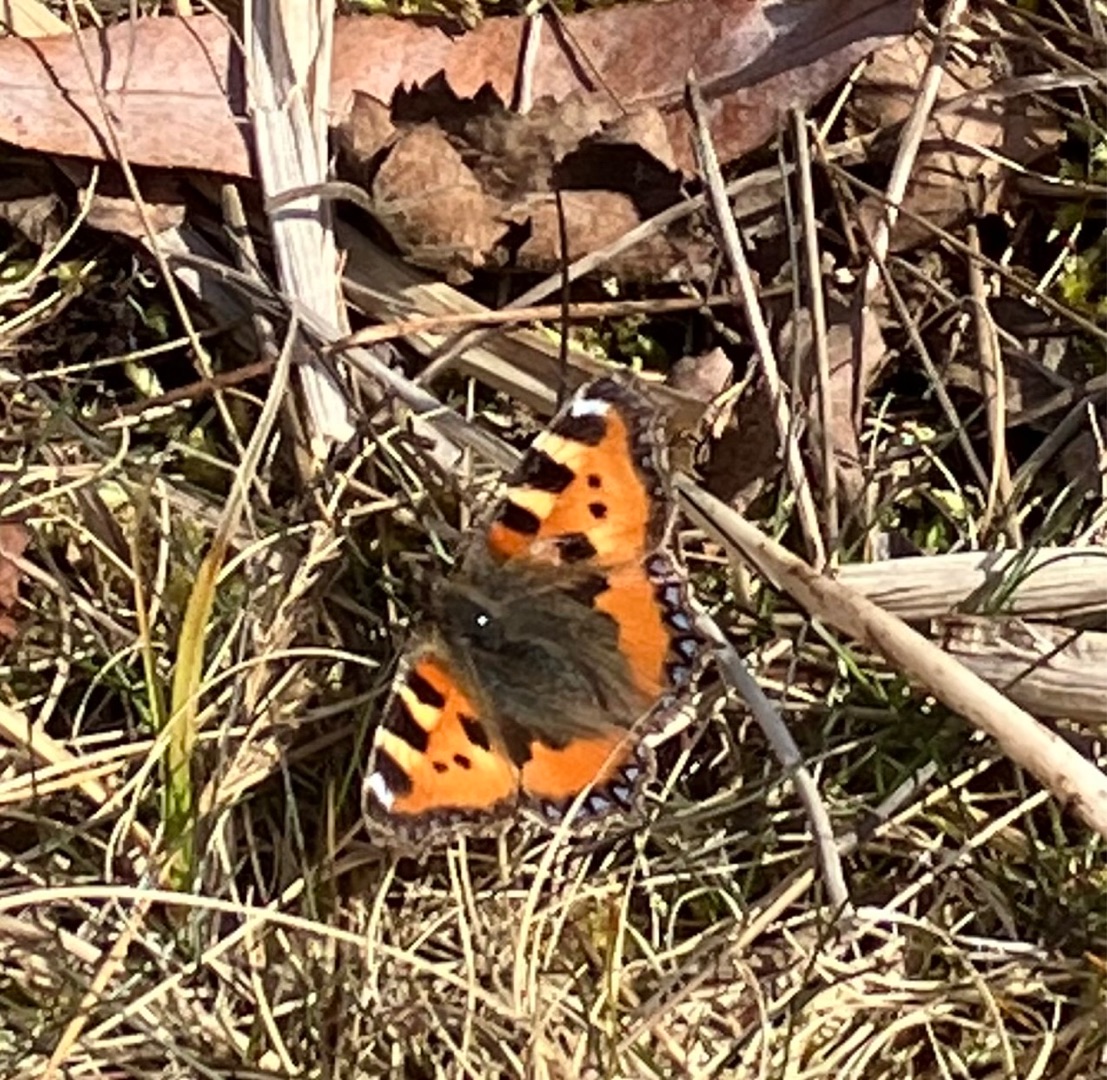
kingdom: Animalia
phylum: Arthropoda
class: Insecta
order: Lepidoptera
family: Nymphalidae
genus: Aglais
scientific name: Aglais urticae
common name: Nældens takvinge
